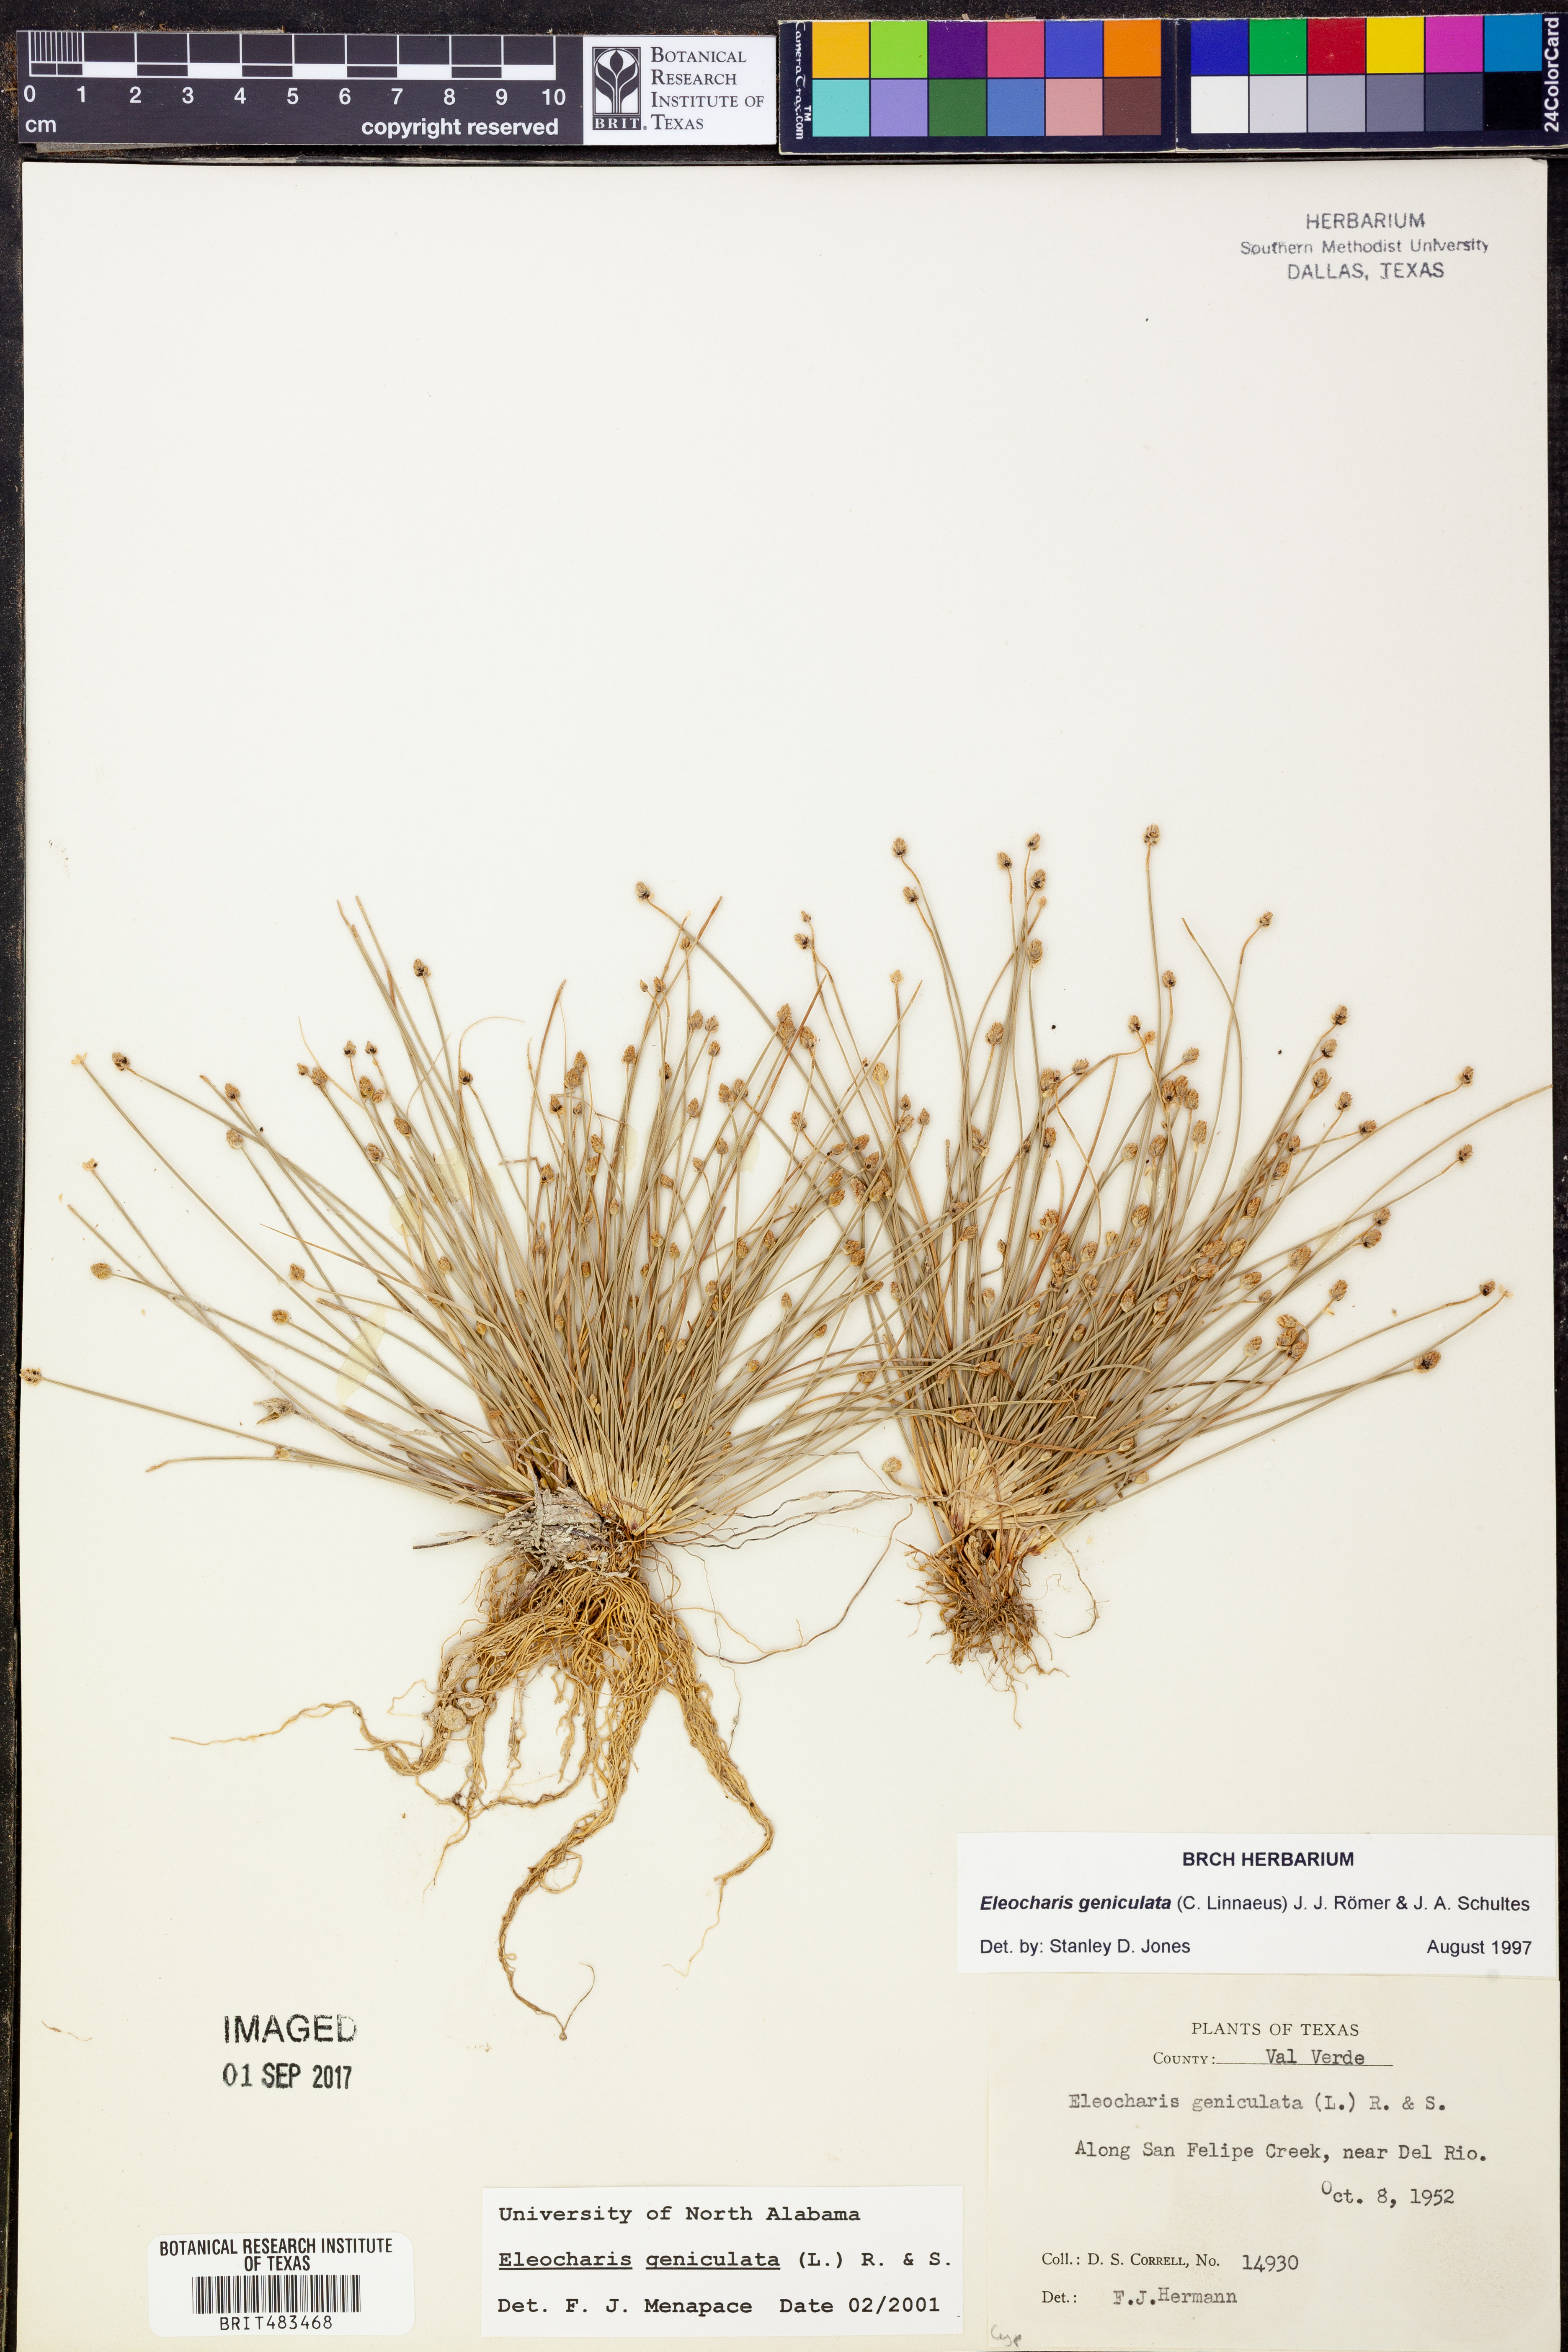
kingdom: Plantae
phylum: Tracheophyta
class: Liliopsida
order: Poales
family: Cyperaceae
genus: Eleocharis
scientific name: Eleocharis geniculata
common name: Canada spikesedge
